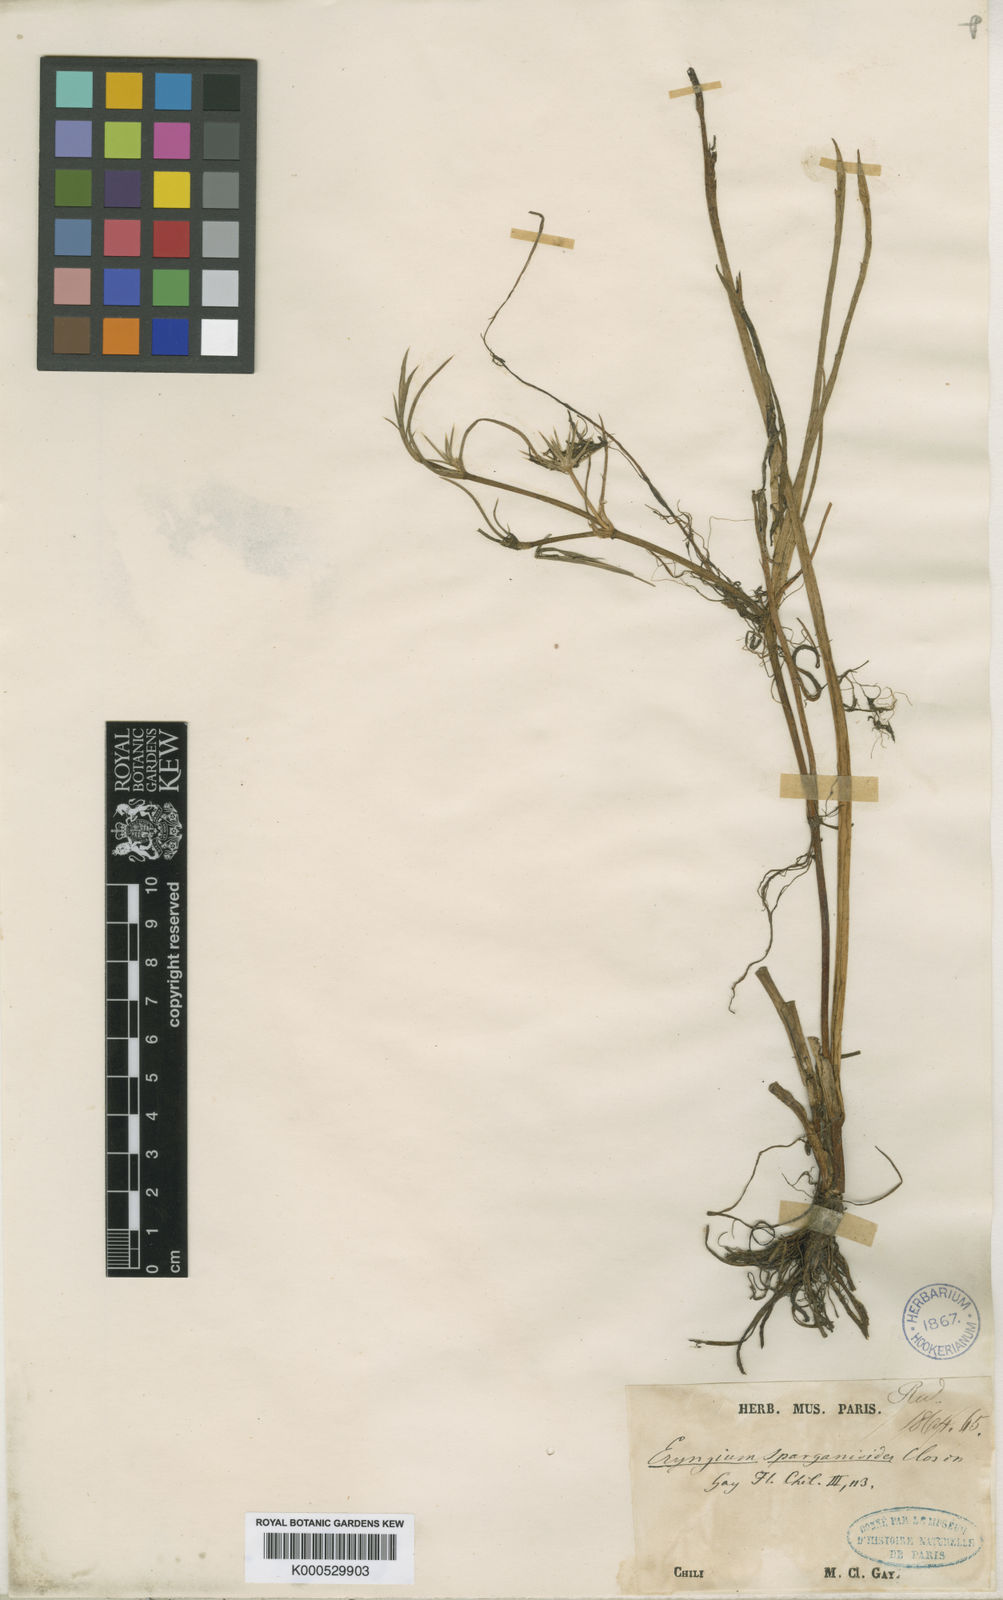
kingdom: Plantae
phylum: Tracheophyta
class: Magnoliopsida
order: Apiales
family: Apiaceae
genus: Eryngium
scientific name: Eryngium sparganioides
